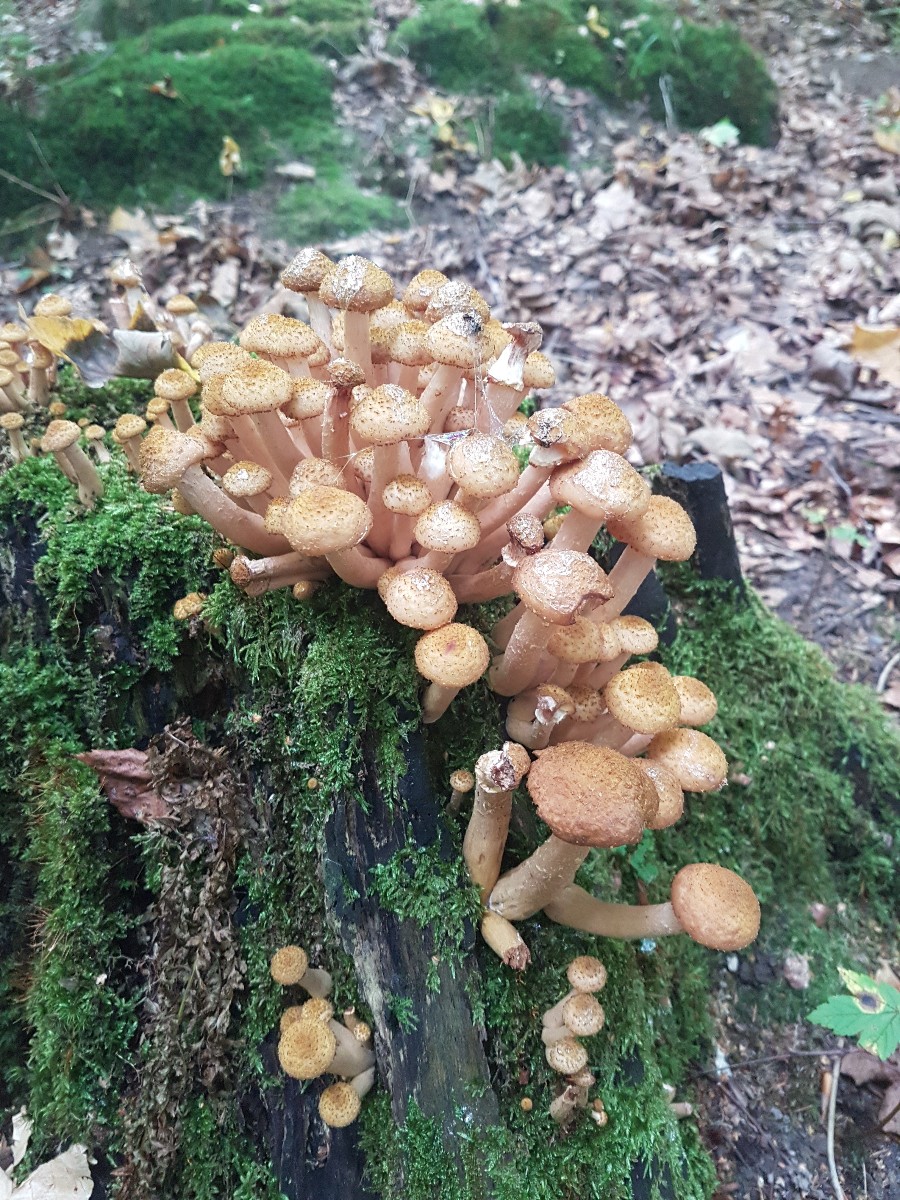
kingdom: Fungi
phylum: Basidiomycota
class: Agaricomycetes
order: Agaricales
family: Physalacriaceae
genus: Armillaria
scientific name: Armillaria ostoyae
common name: mørk honningsvamp
